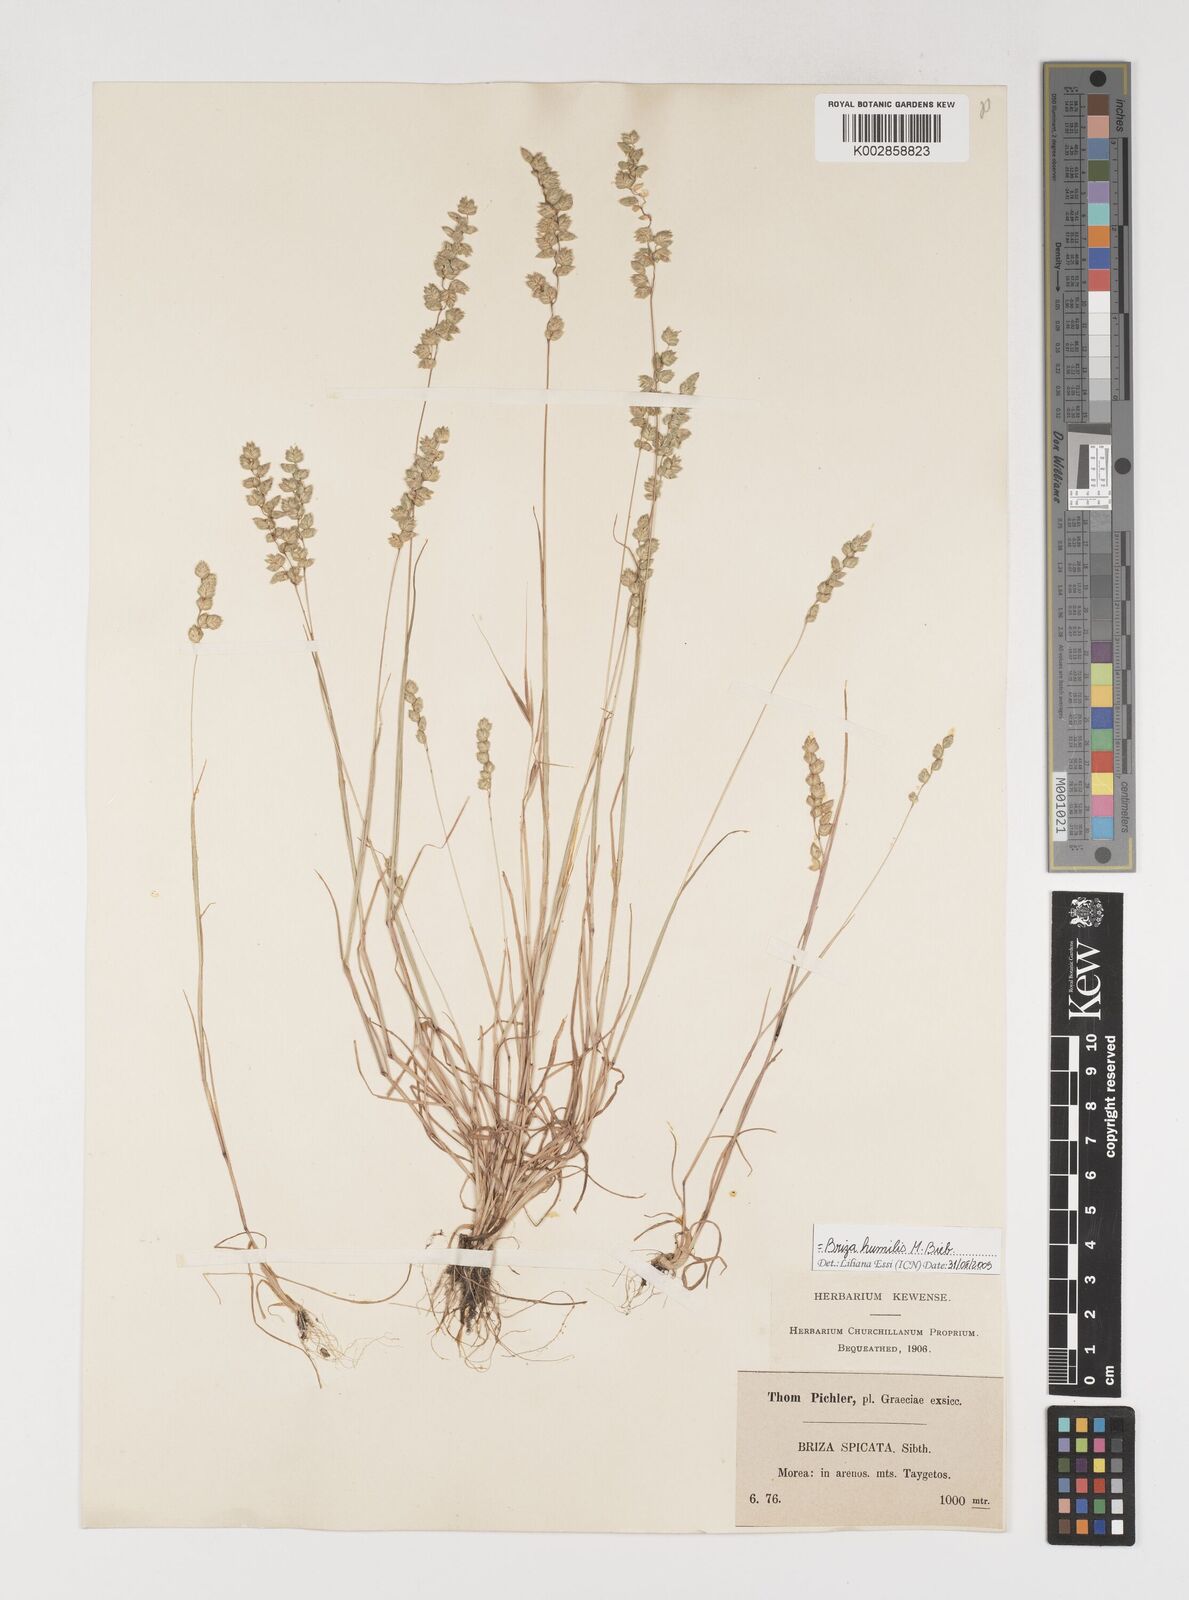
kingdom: Plantae
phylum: Tracheophyta
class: Liliopsida
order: Poales
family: Poaceae
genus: Briza
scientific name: Briza humilis
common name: Spiked quaking grass
